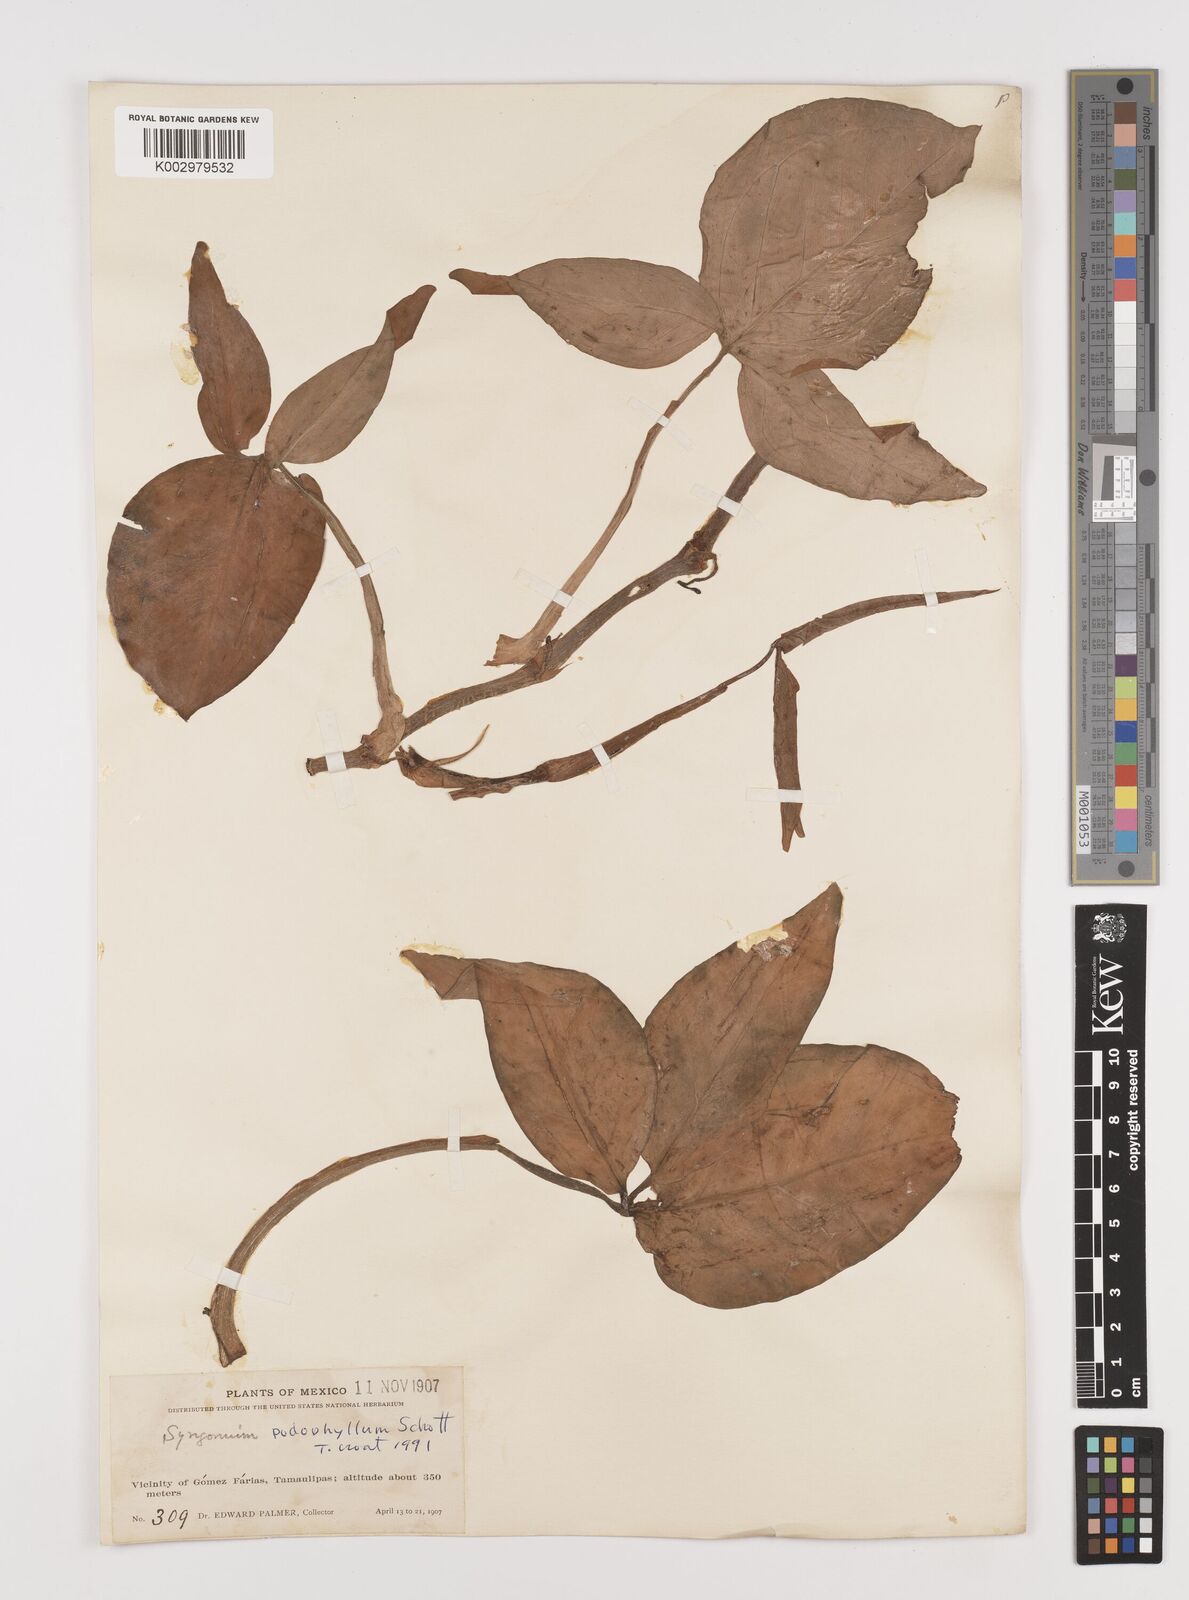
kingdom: Plantae
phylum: Tracheophyta
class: Liliopsida
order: Alismatales
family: Araceae
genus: Syngonium
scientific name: Syngonium podophyllum
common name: American evergreen
